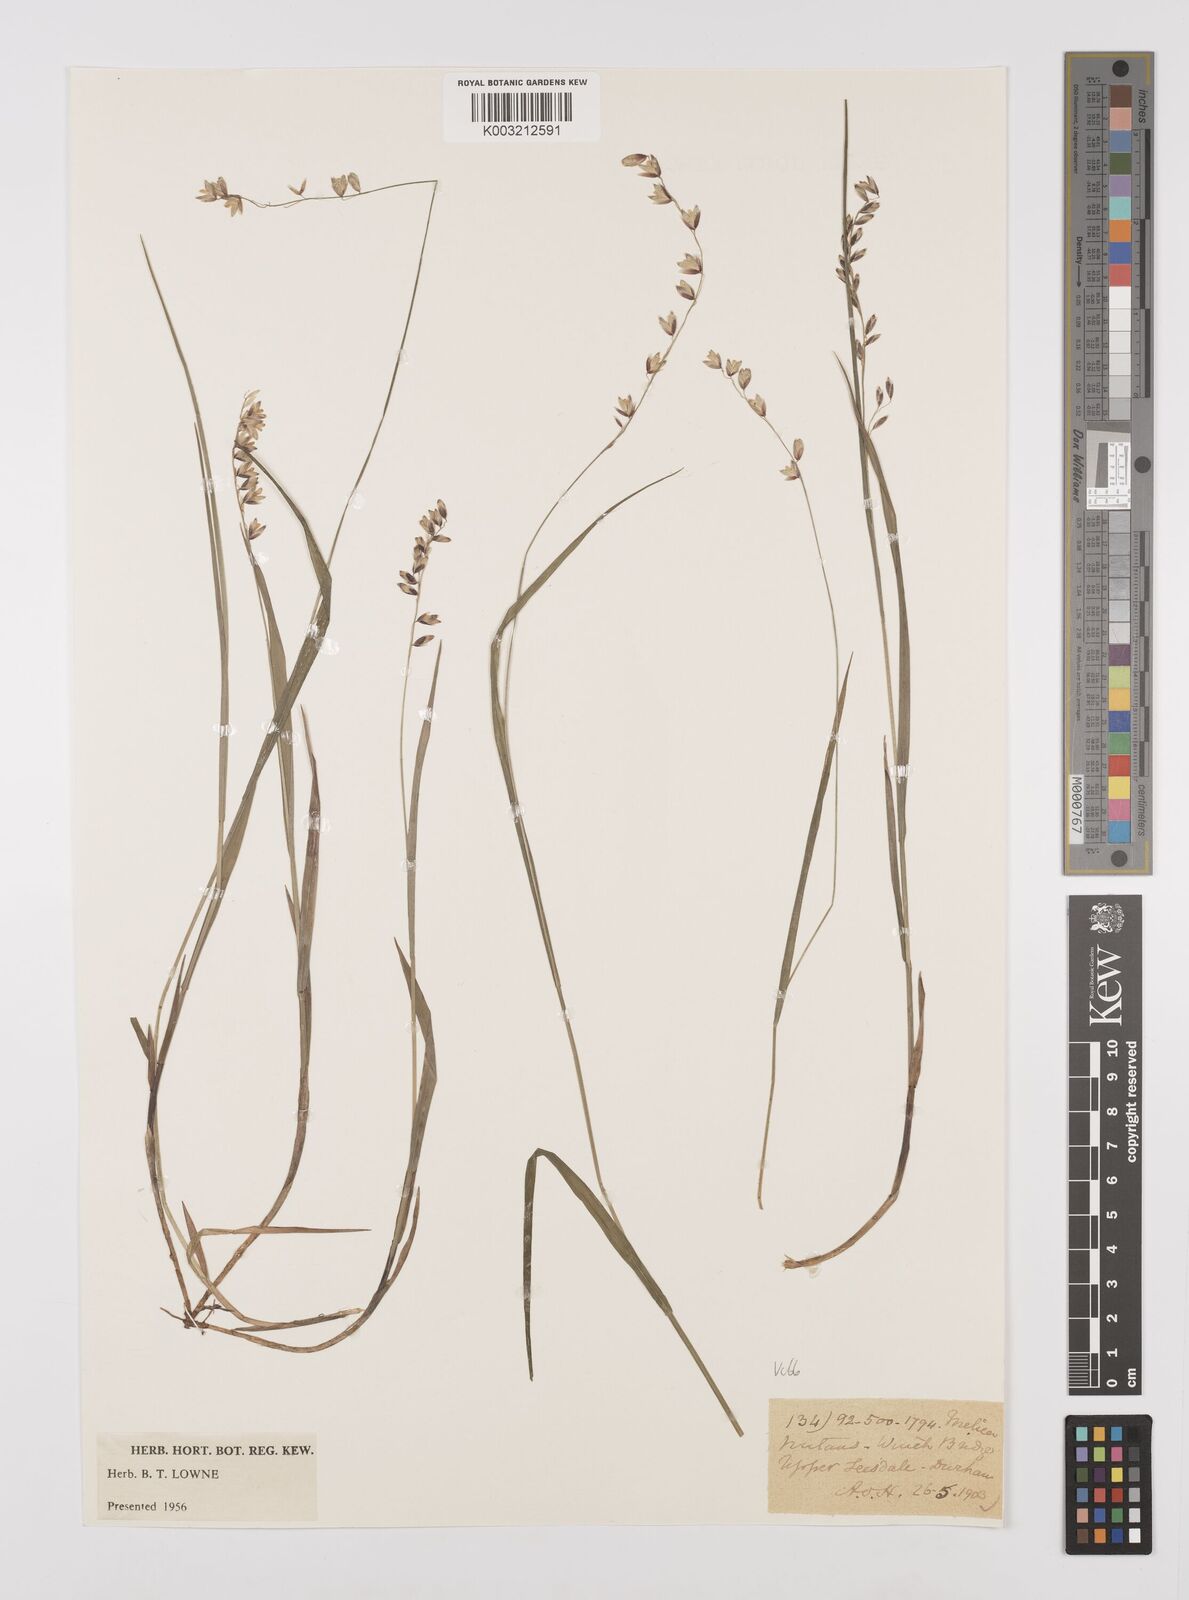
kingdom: Plantae
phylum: Tracheophyta
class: Liliopsida
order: Poales
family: Poaceae
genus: Melica
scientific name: Melica
